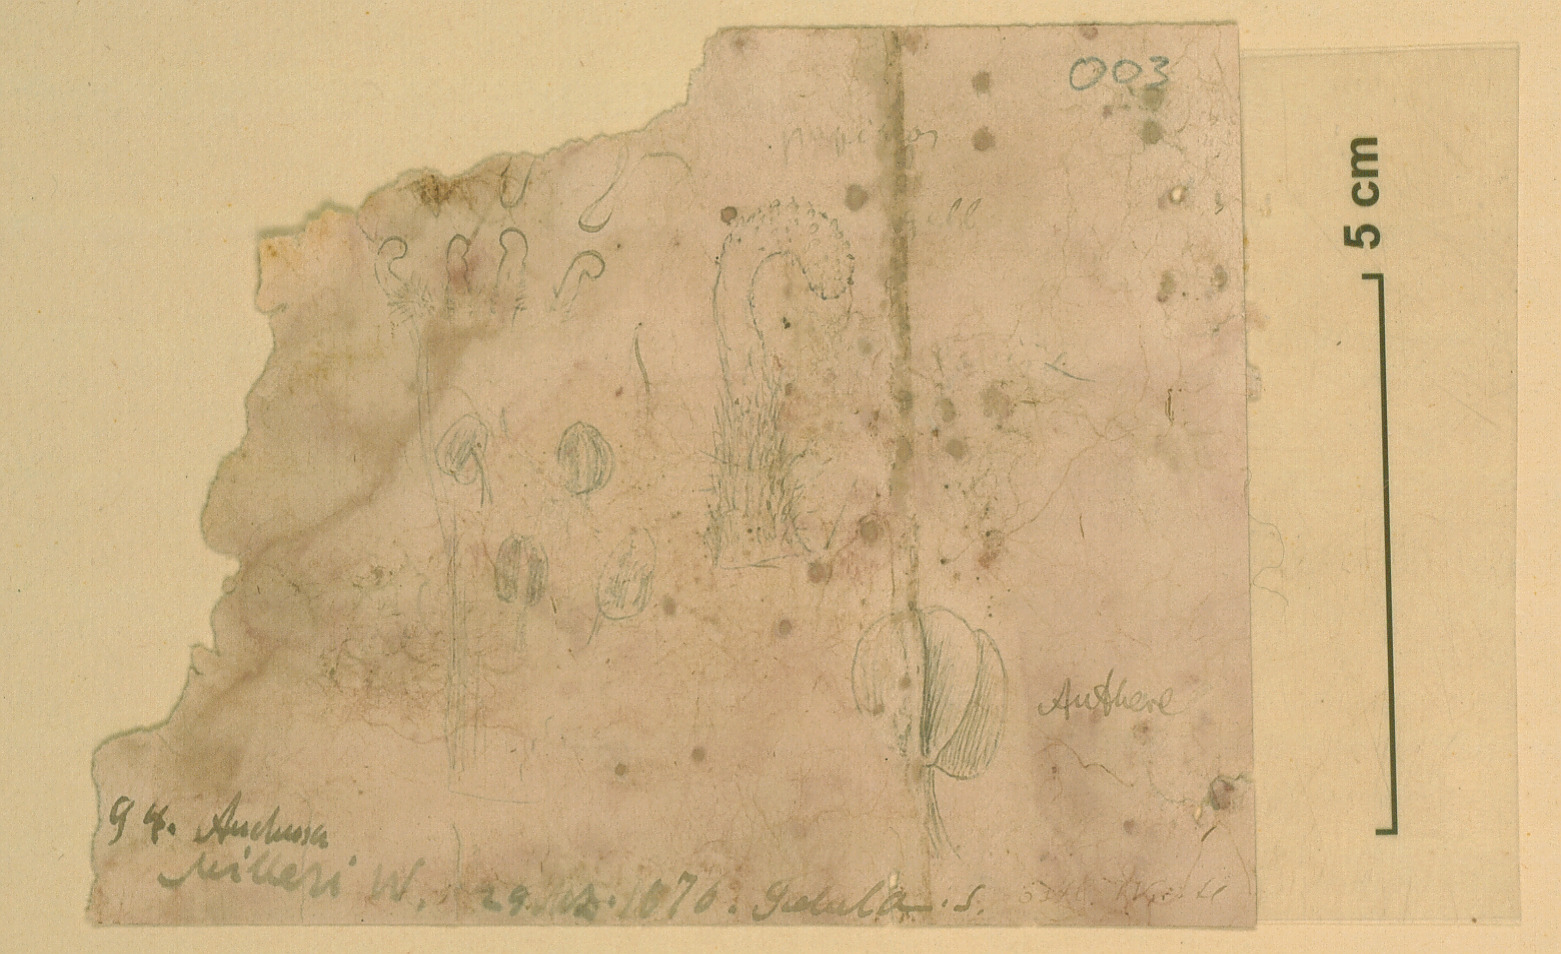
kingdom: Plantae
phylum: Tracheophyta
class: Magnoliopsida
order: Boraginales
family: Boraginaceae
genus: Anchusa
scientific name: Anchusa milleri
